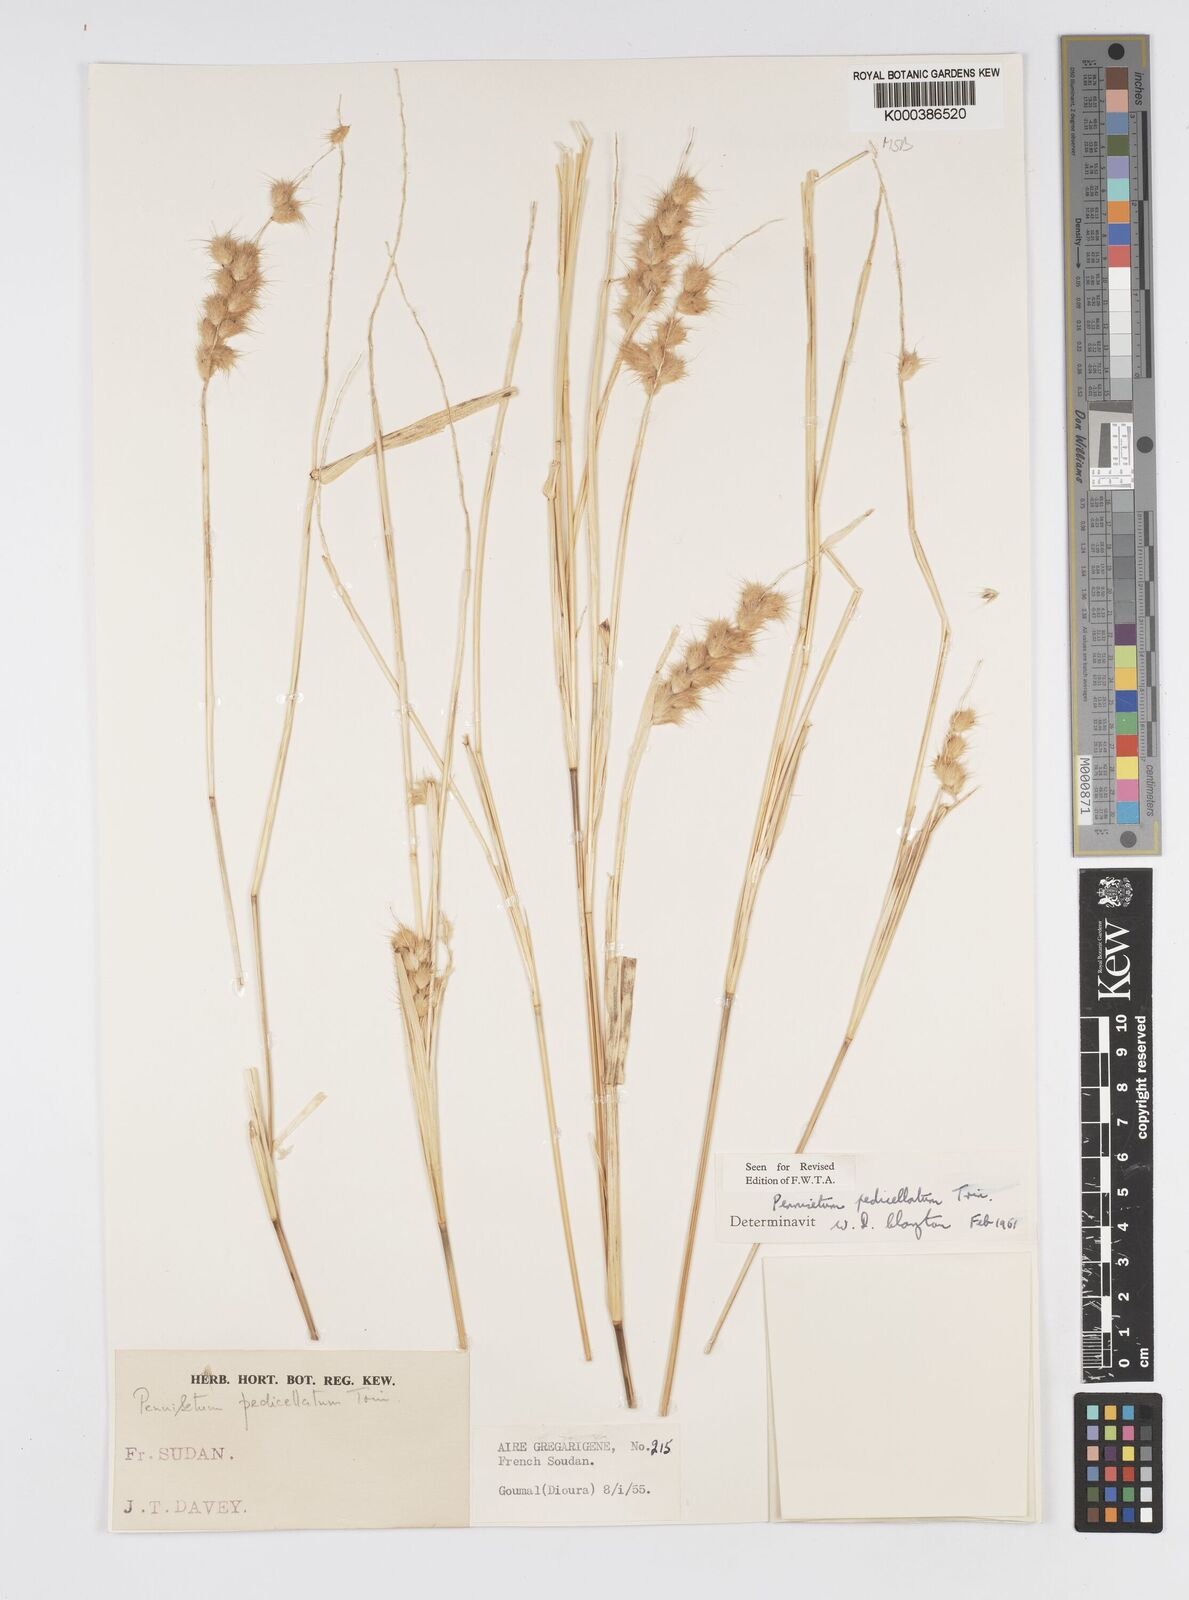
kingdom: Plantae
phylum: Tracheophyta
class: Liliopsida
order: Poales
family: Poaceae
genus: Cenchrus
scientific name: Cenchrus pedicellatus
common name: Hairy fountain grass
